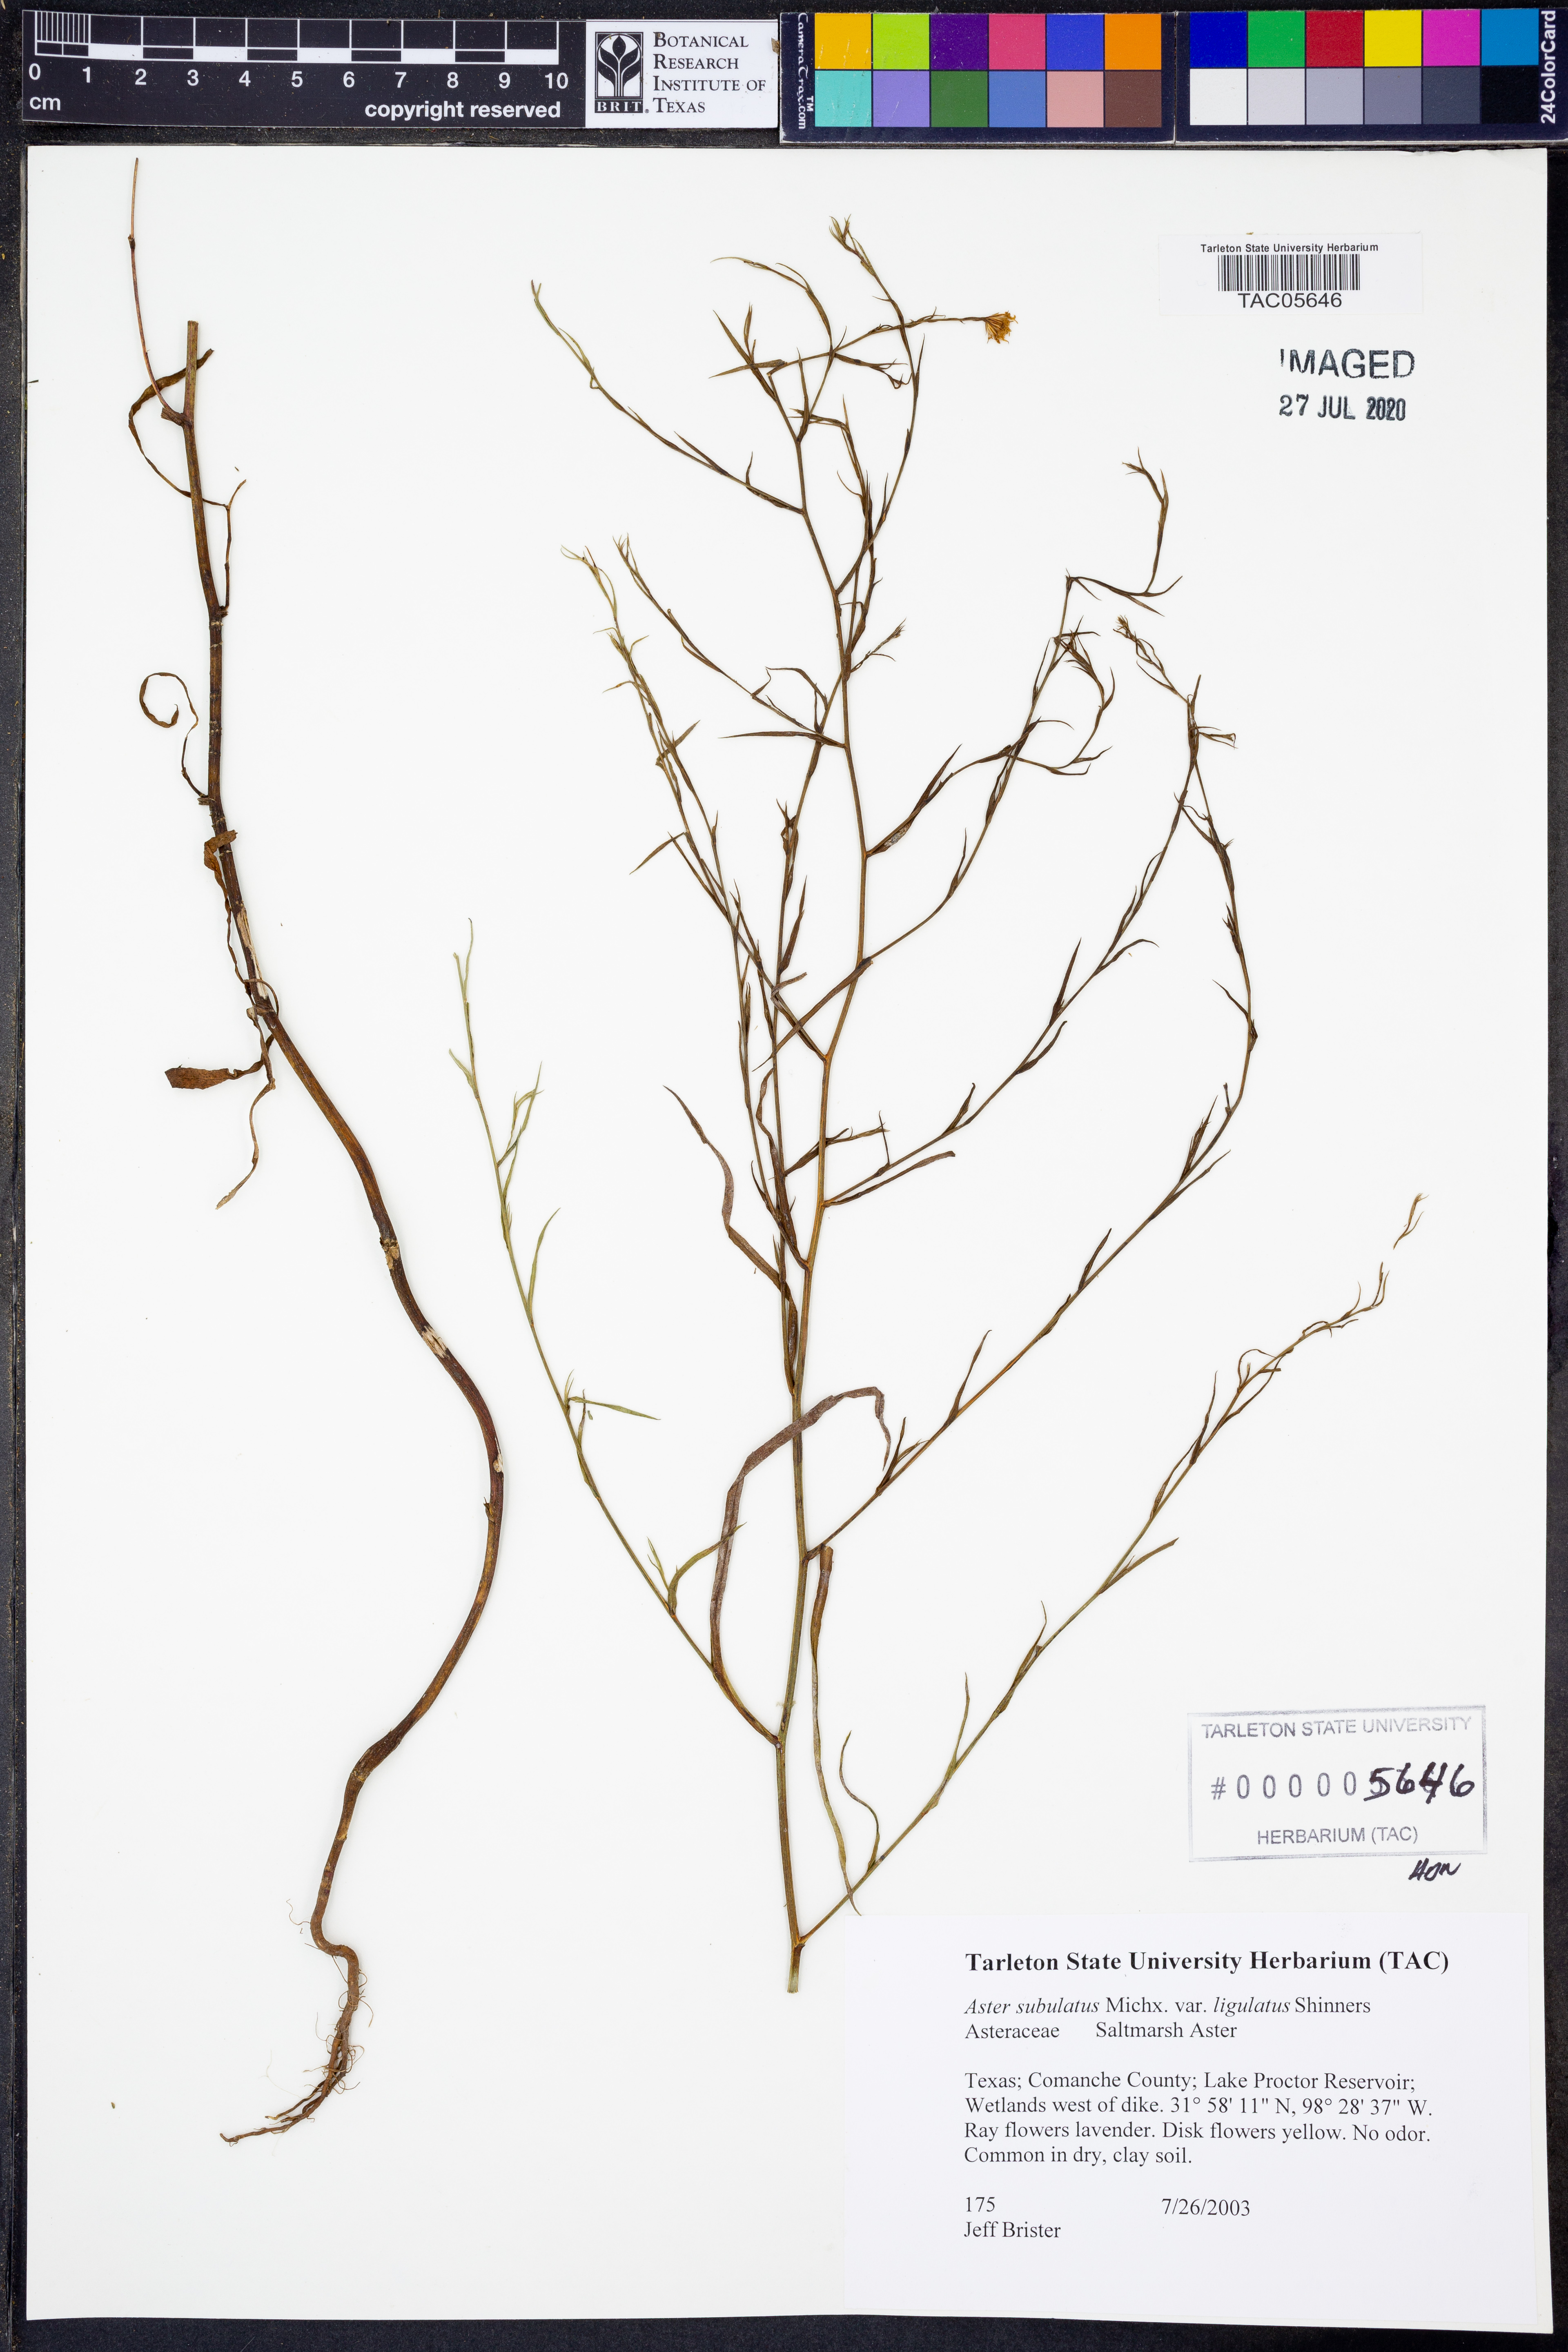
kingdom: Plantae
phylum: Tracheophyta
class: Magnoliopsida
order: Asterales
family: Asteraceae
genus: Symphyotrichum
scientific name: Symphyotrichum divaricatum
